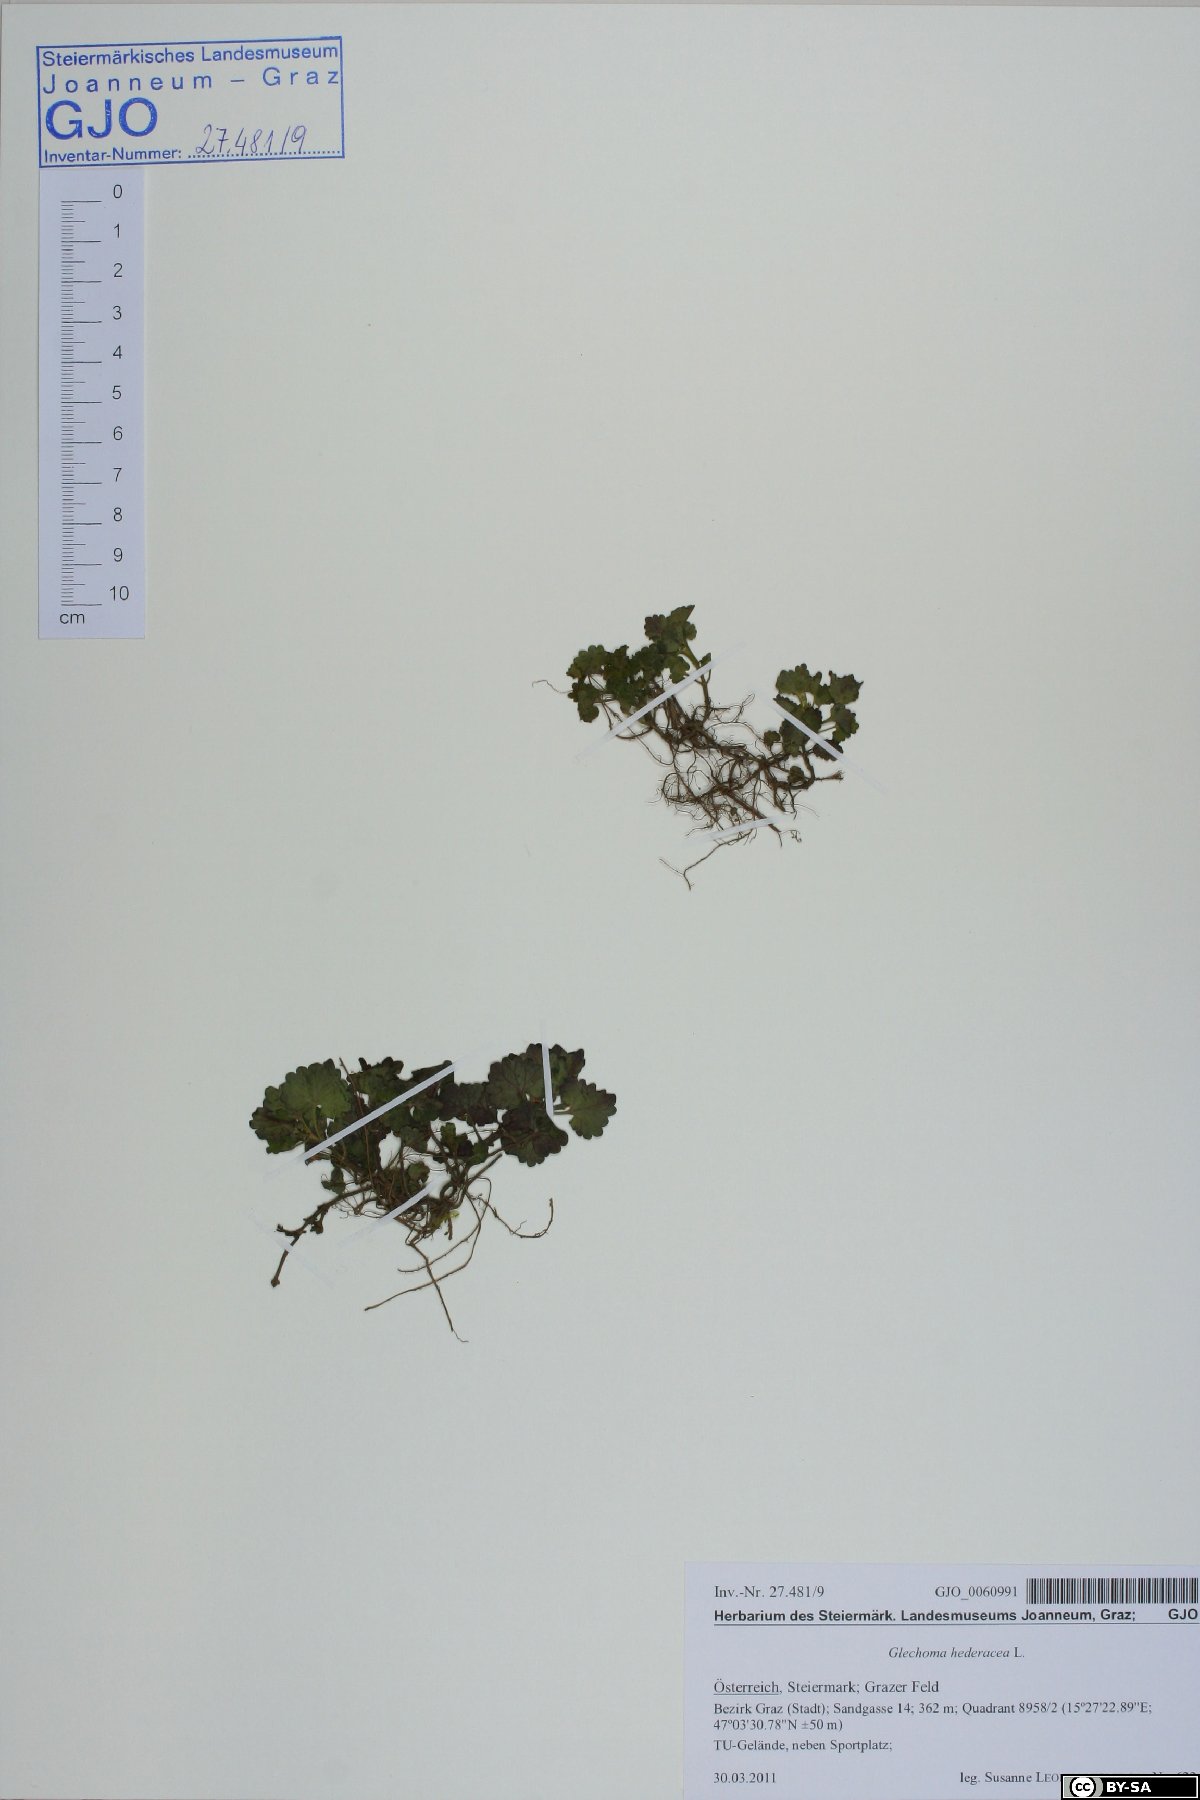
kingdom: Plantae
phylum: Tracheophyta
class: Magnoliopsida
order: Lamiales
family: Lamiaceae
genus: Glechoma
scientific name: Glechoma hederacea
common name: Ground ivy
